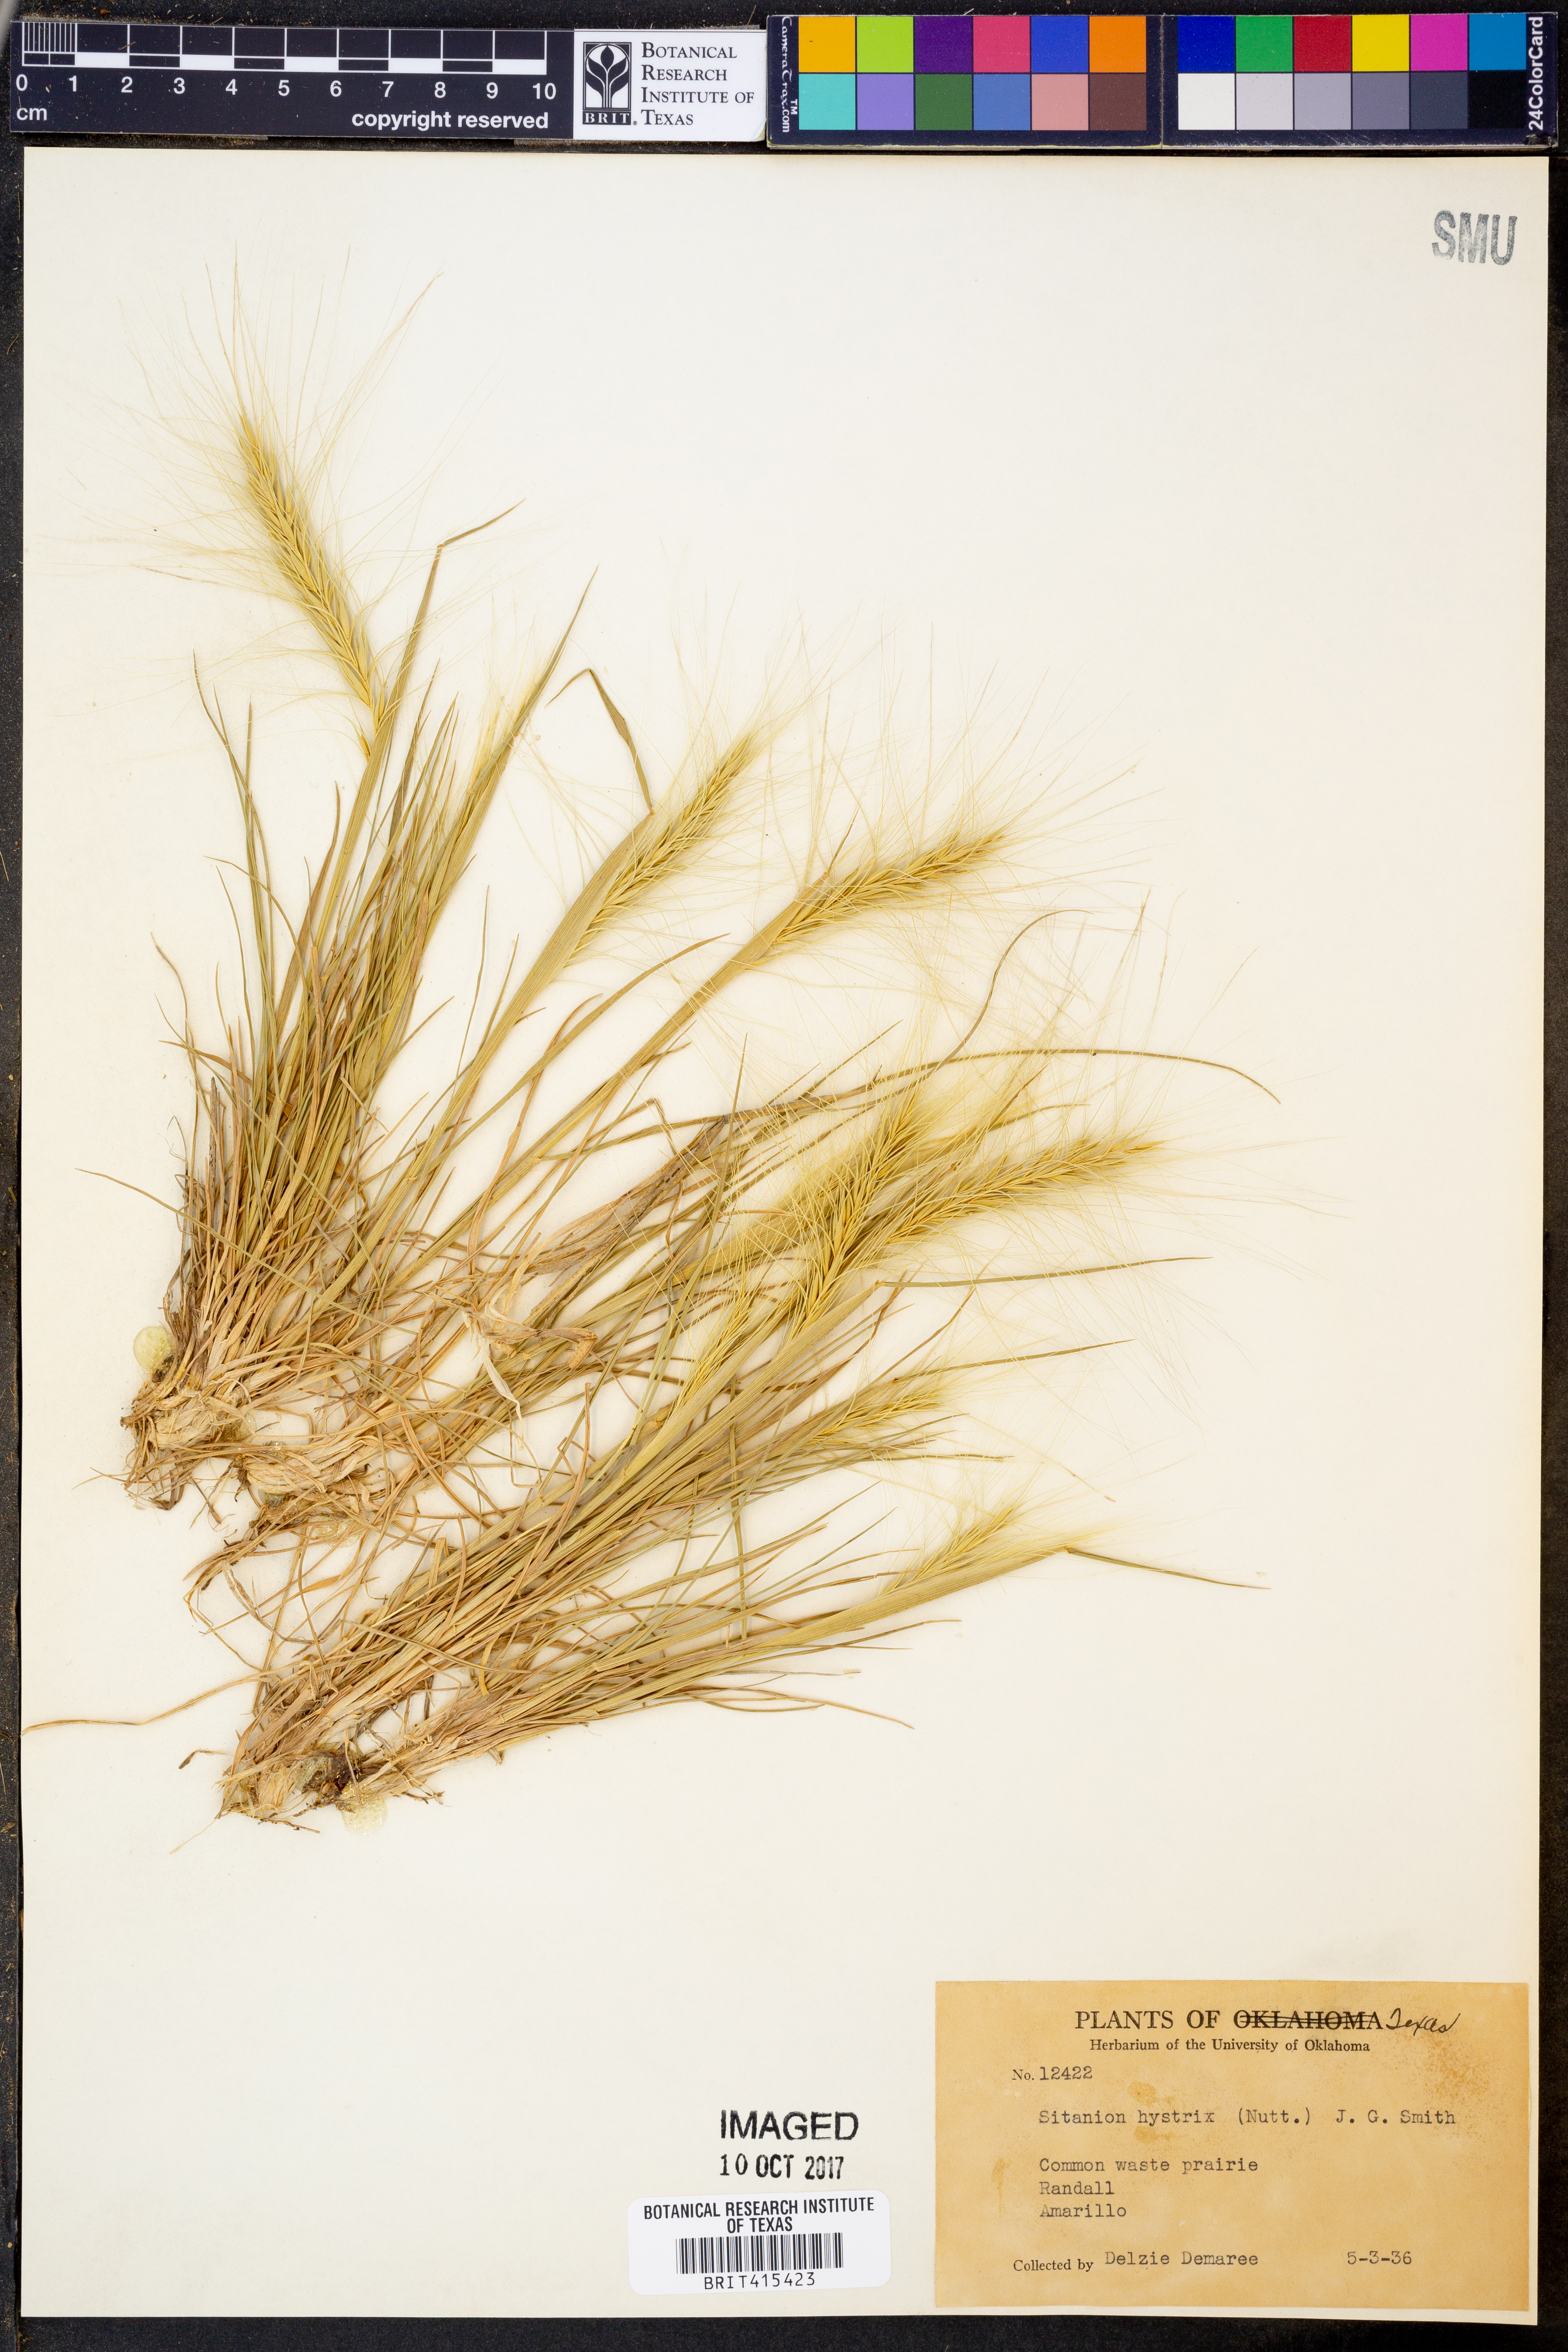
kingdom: Plantae
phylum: Tracheophyta
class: Liliopsida
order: Poales
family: Poaceae
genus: Elymus
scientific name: Elymus elymoides
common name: Bottlebrush squirreltail
